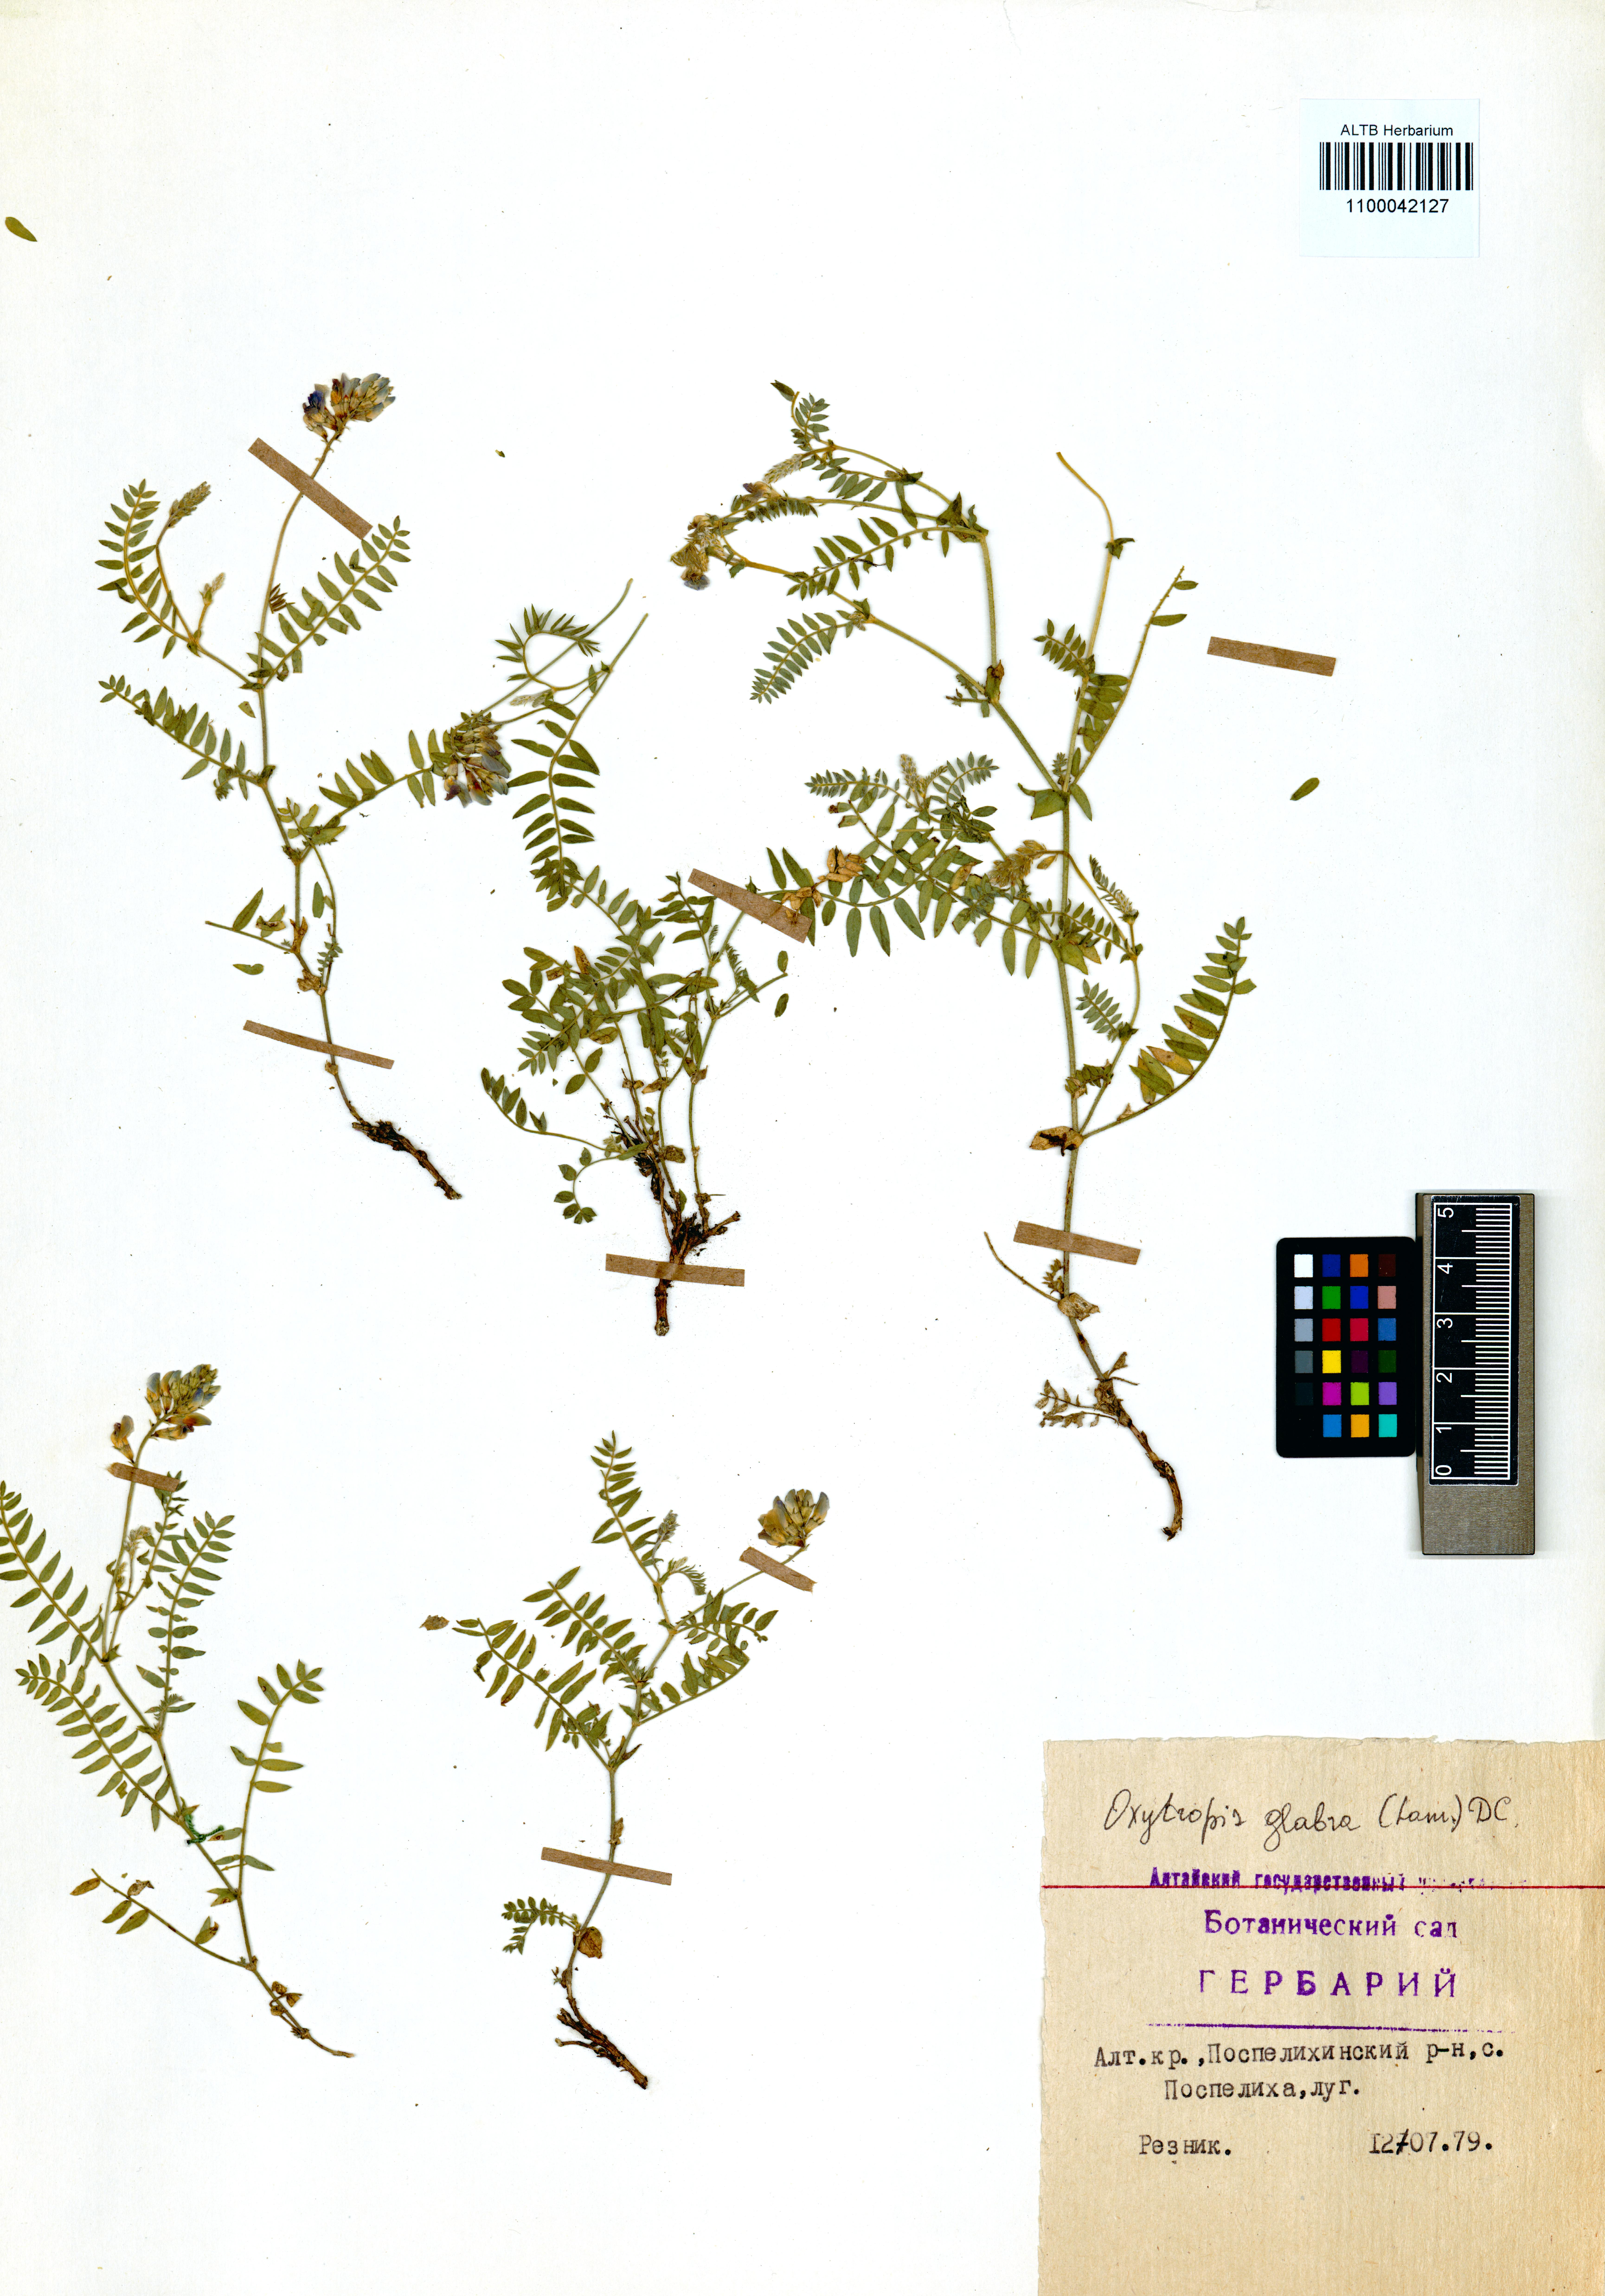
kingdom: Plantae
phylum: Tracheophyta
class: Magnoliopsida
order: Fabales
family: Fabaceae
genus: Oxytropis
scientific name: Oxytropis glabra
